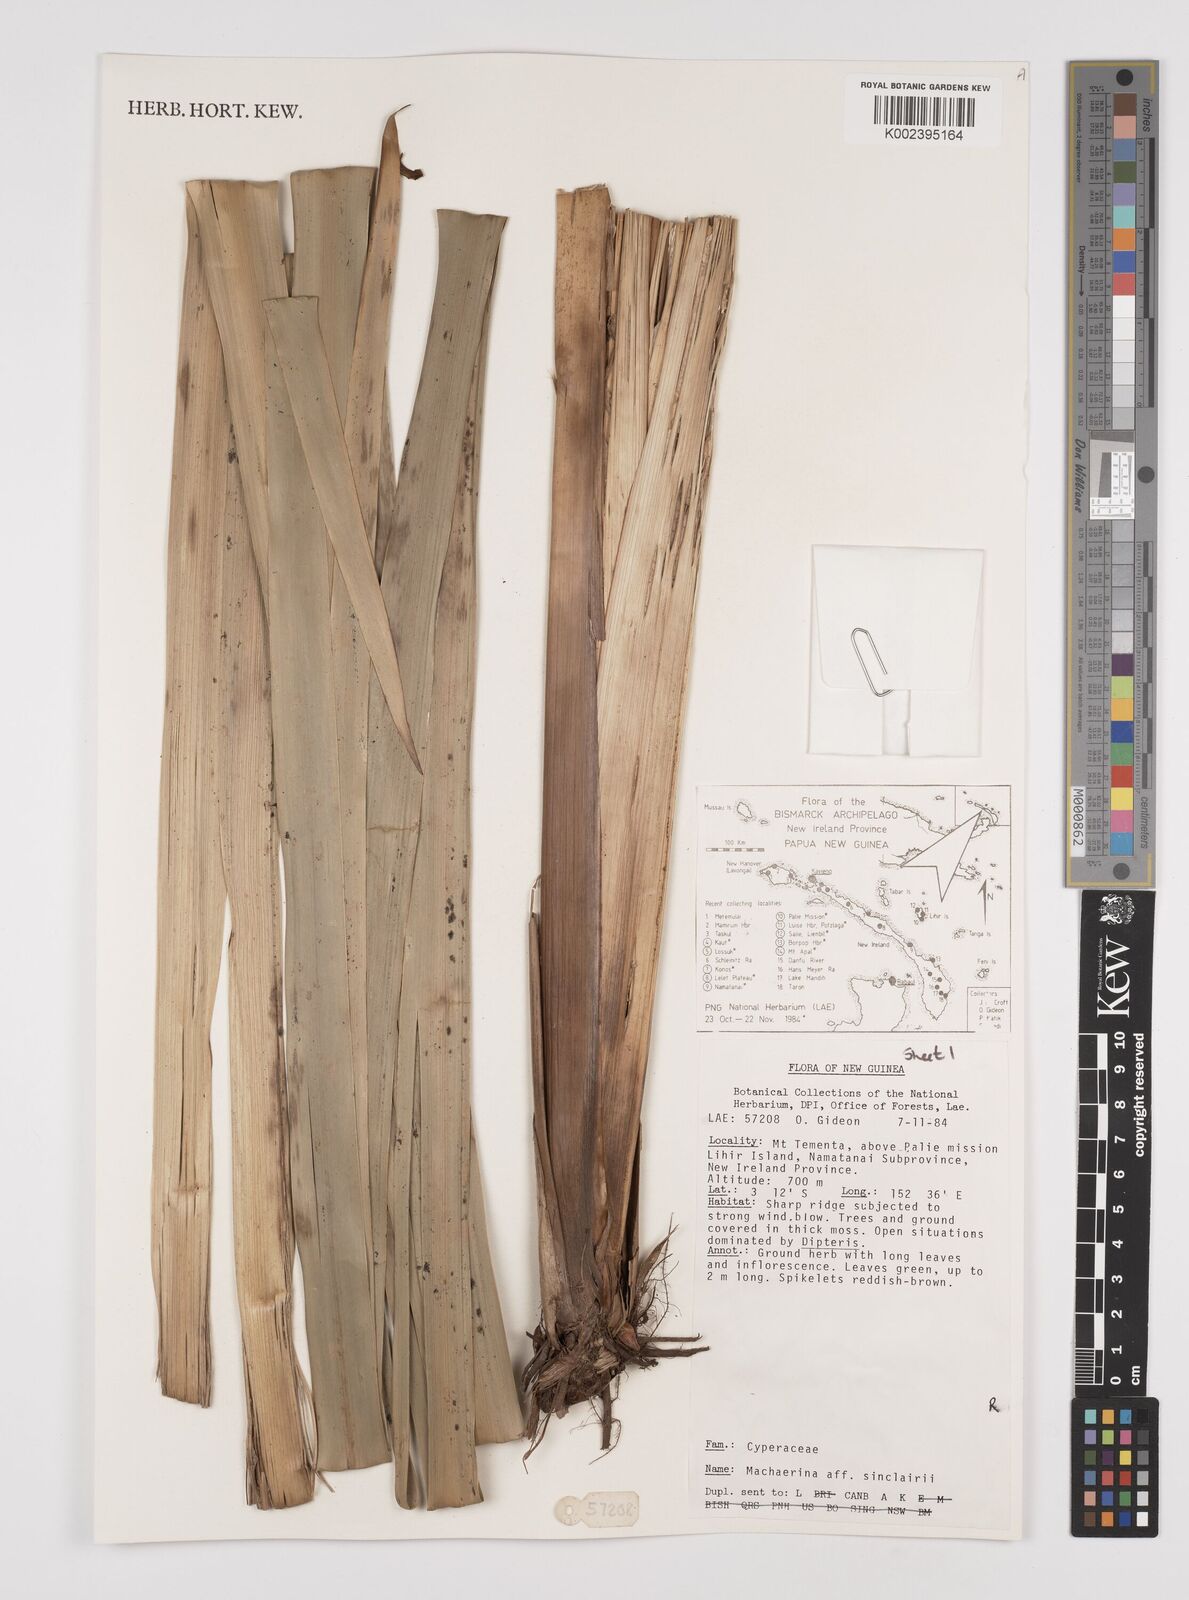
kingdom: Plantae
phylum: Tracheophyta
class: Liliopsida
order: Poales
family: Cyperaceae
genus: Machaerina
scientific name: Machaerina sinclairii
